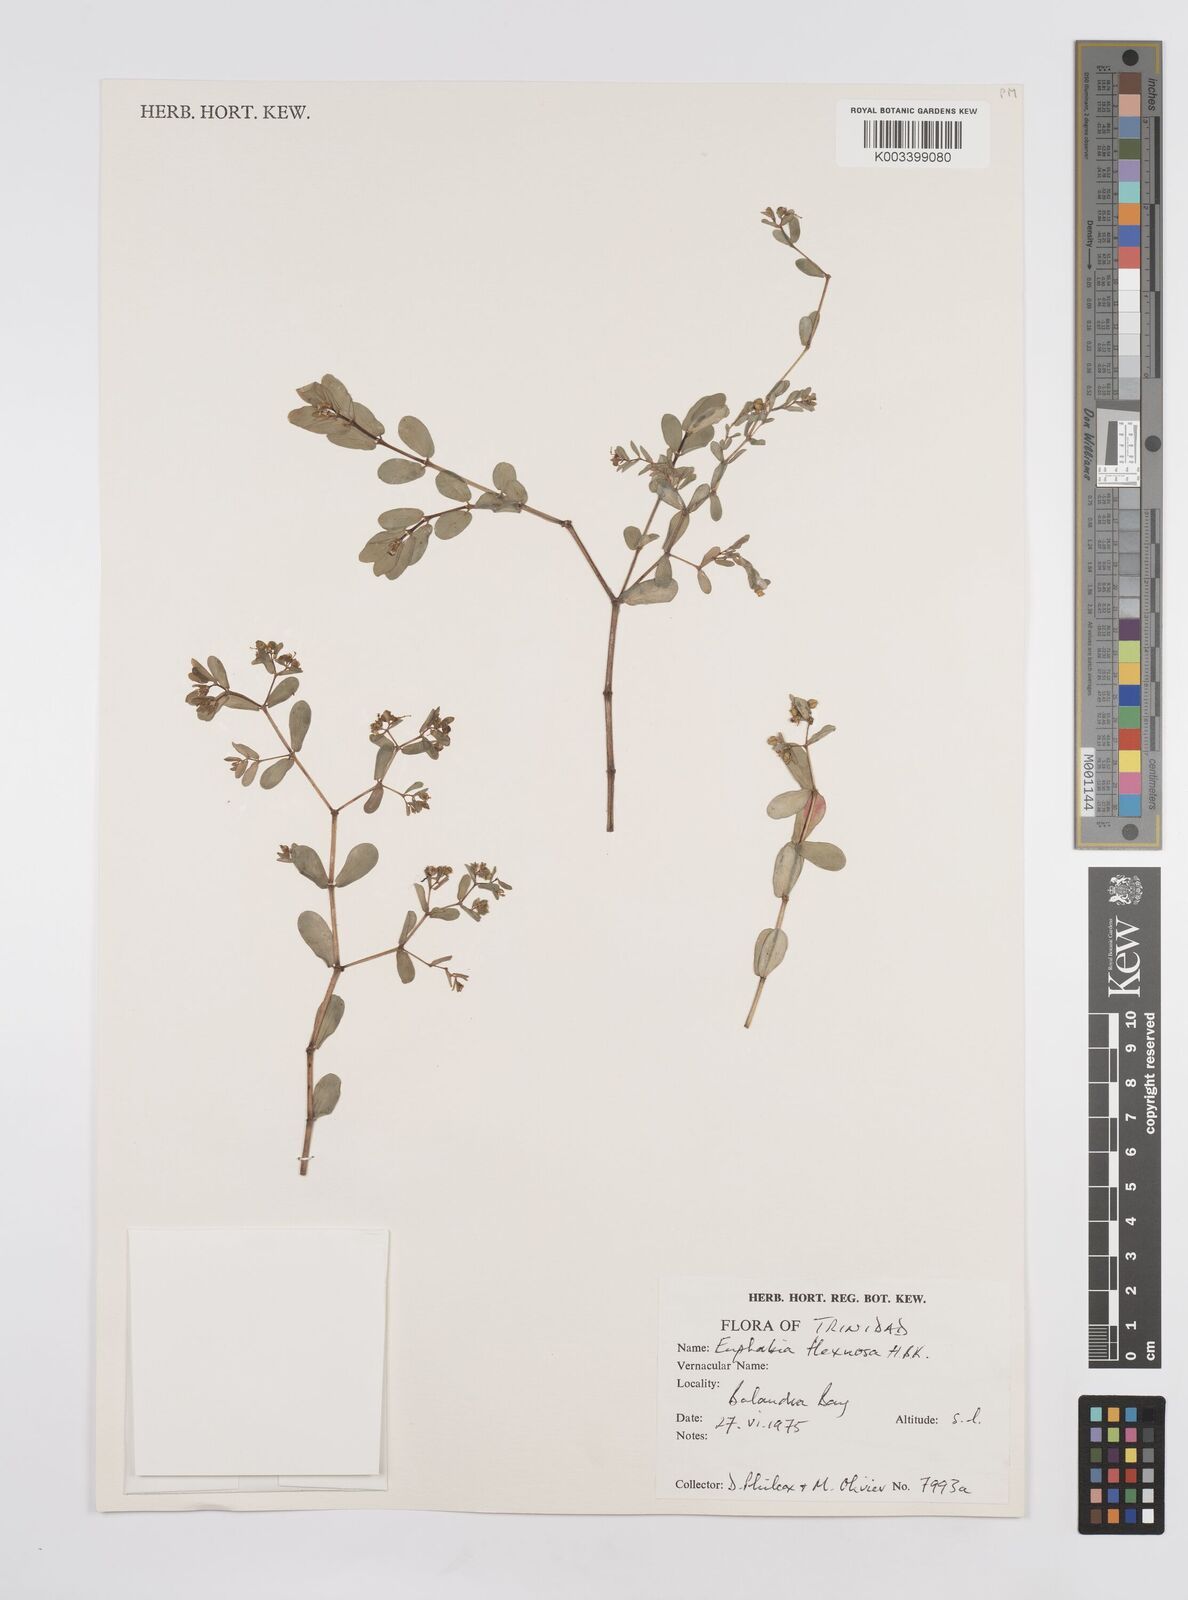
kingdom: Plantae
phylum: Tracheophyta
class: Magnoliopsida
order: Malpighiales
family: Euphorbiaceae
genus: Euphorbia
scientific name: Euphorbia mesembryanthemifolia
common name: Coastal beach sandmat
